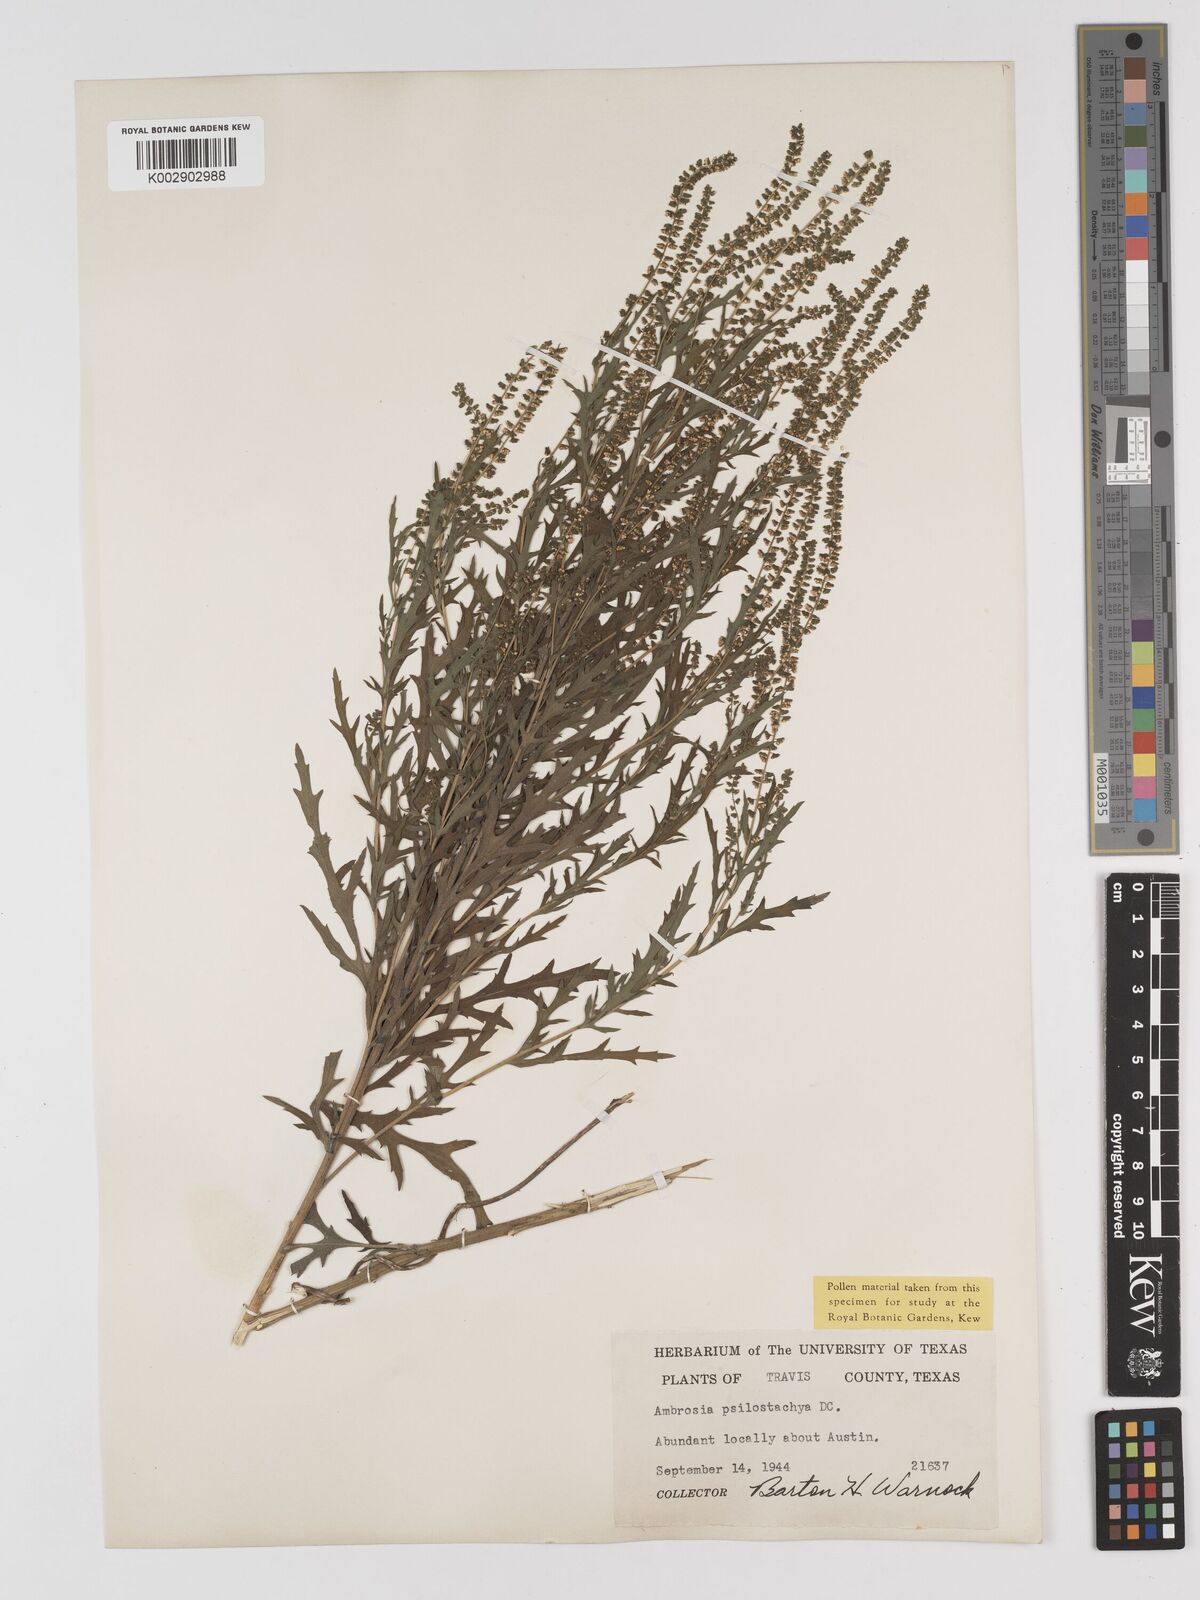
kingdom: Plantae
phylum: Tracheophyta
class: Magnoliopsida
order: Asterales
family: Asteraceae
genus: Ambrosia
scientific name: Ambrosia psilostachya
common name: Perennial ragweed
